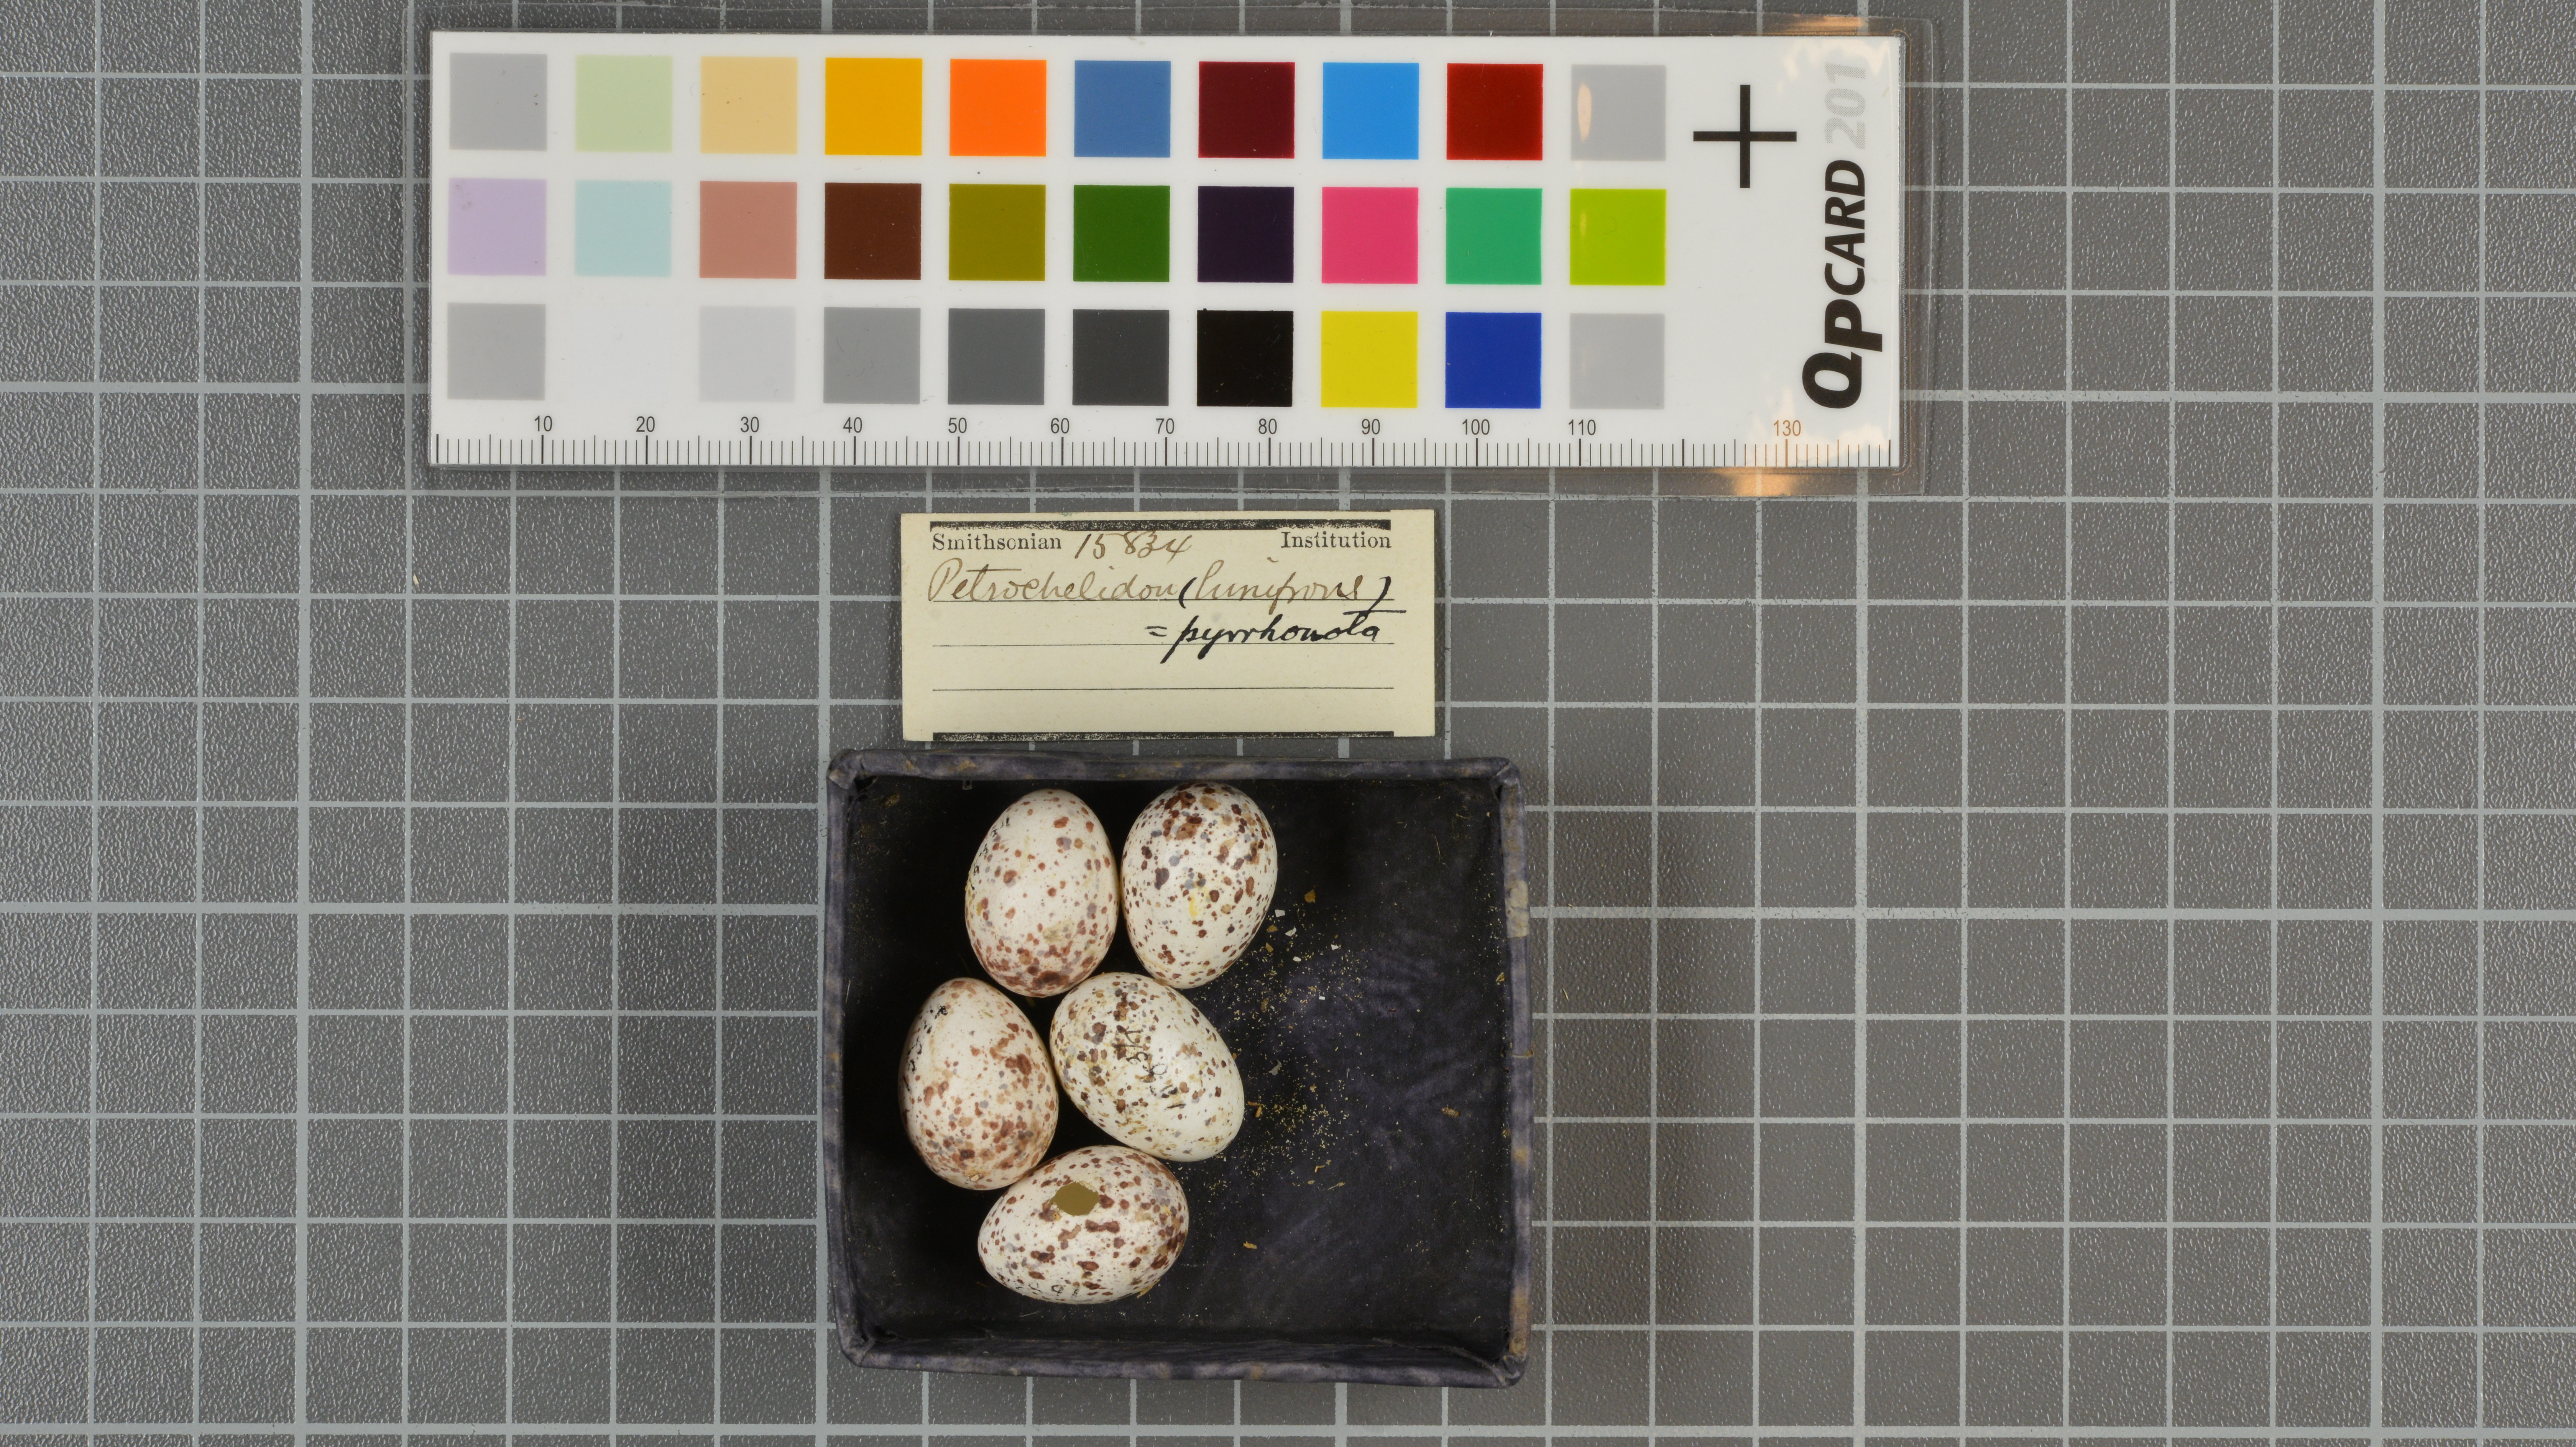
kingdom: Animalia
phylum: Chordata
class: Aves
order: Passeriformes
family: Hirundinidae
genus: Petrochelidon
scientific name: Petrochelidon pyrrhonota
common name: American cliff swallow
